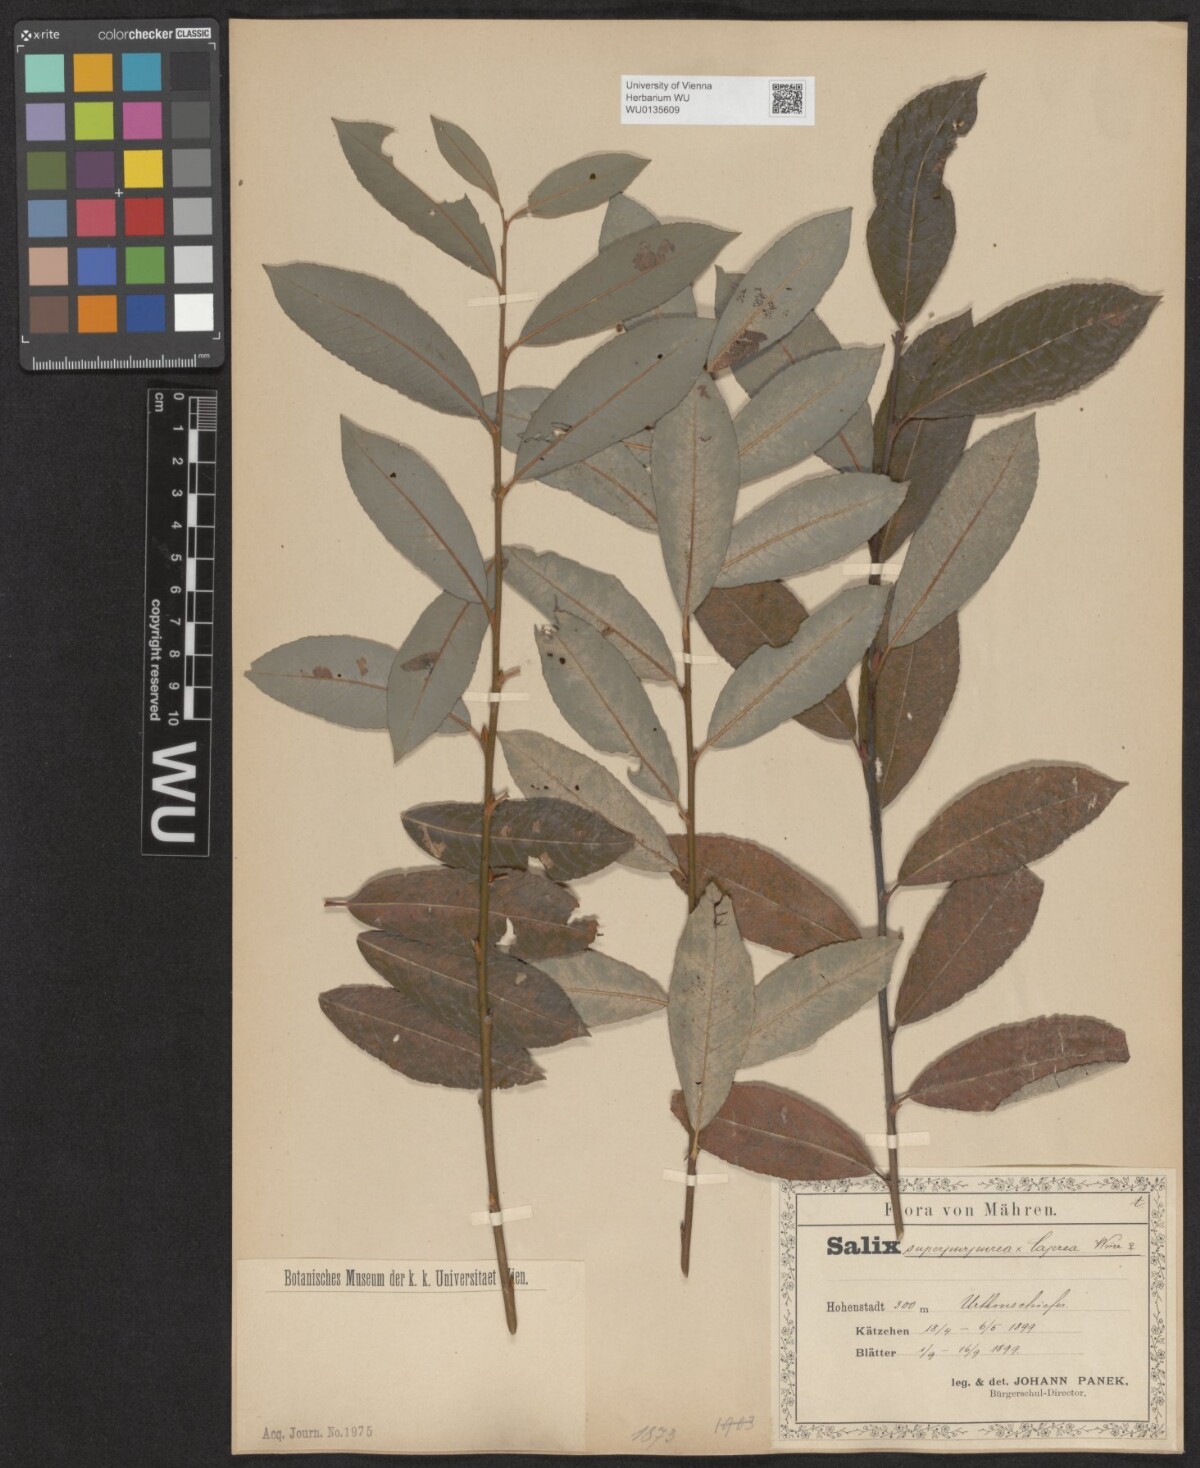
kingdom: Plantae
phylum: Tracheophyta
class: Magnoliopsida
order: Malpighiales
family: Salicaceae
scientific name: Salicaceae
